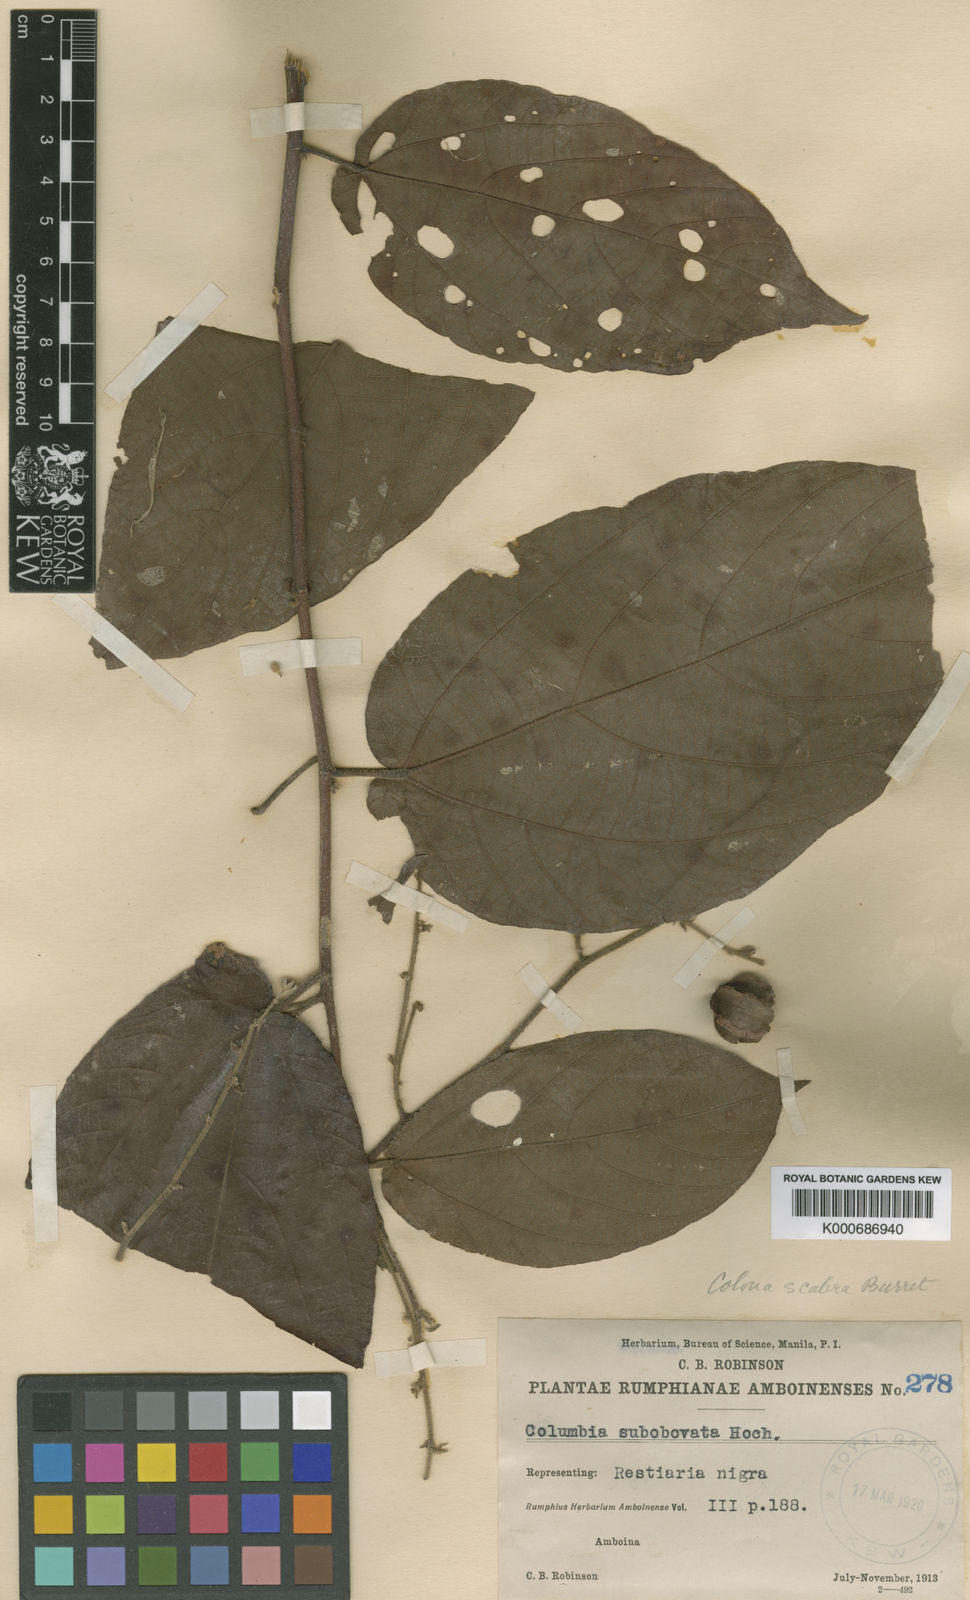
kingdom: Plantae
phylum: Tracheophyta
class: Magnoliopsida
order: Malvales
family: Malvaceae
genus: Colona
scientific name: Colona scabra
